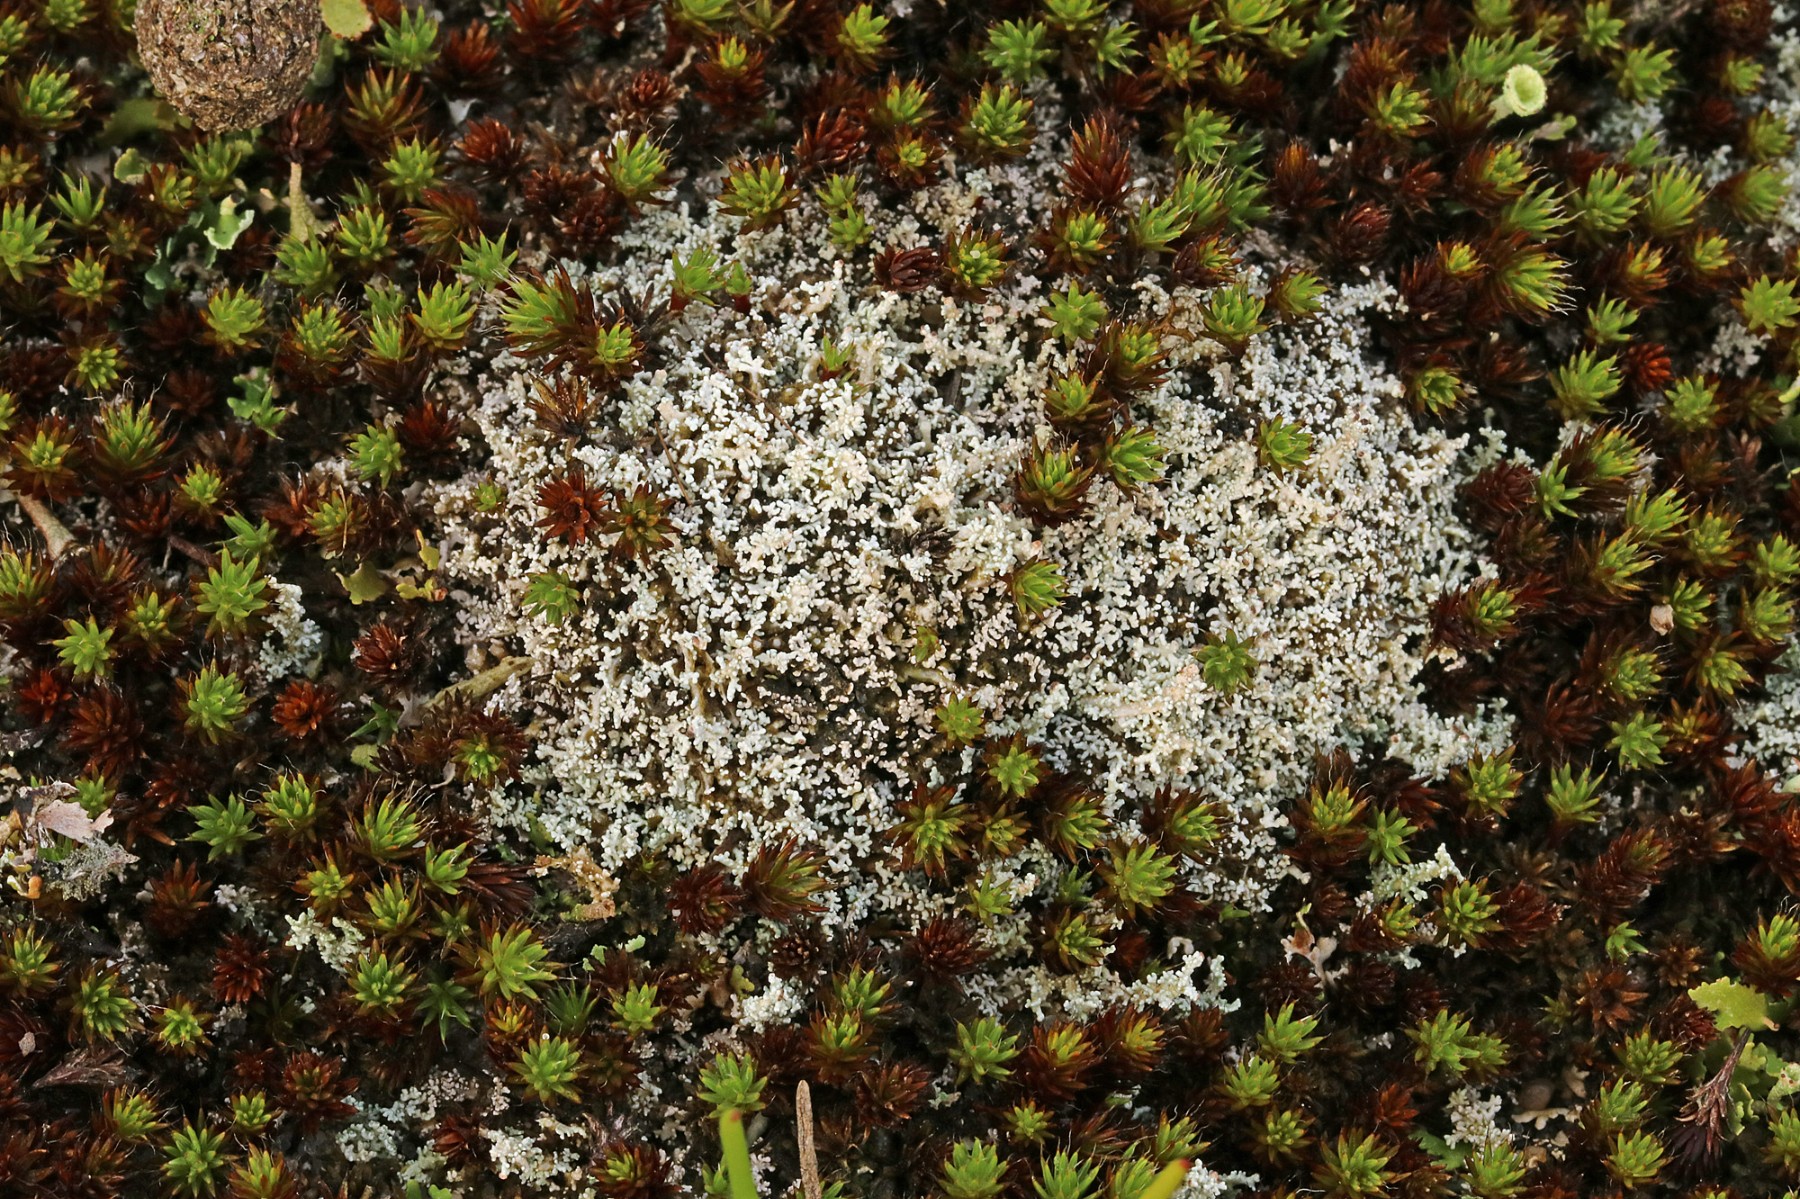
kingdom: Fungi
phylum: Ascomycota
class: Lecanoromycetes
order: Lecanorales
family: Stereocaulaceae
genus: Stereocaulon
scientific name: Stereocaulon condensatum
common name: lav korallav
